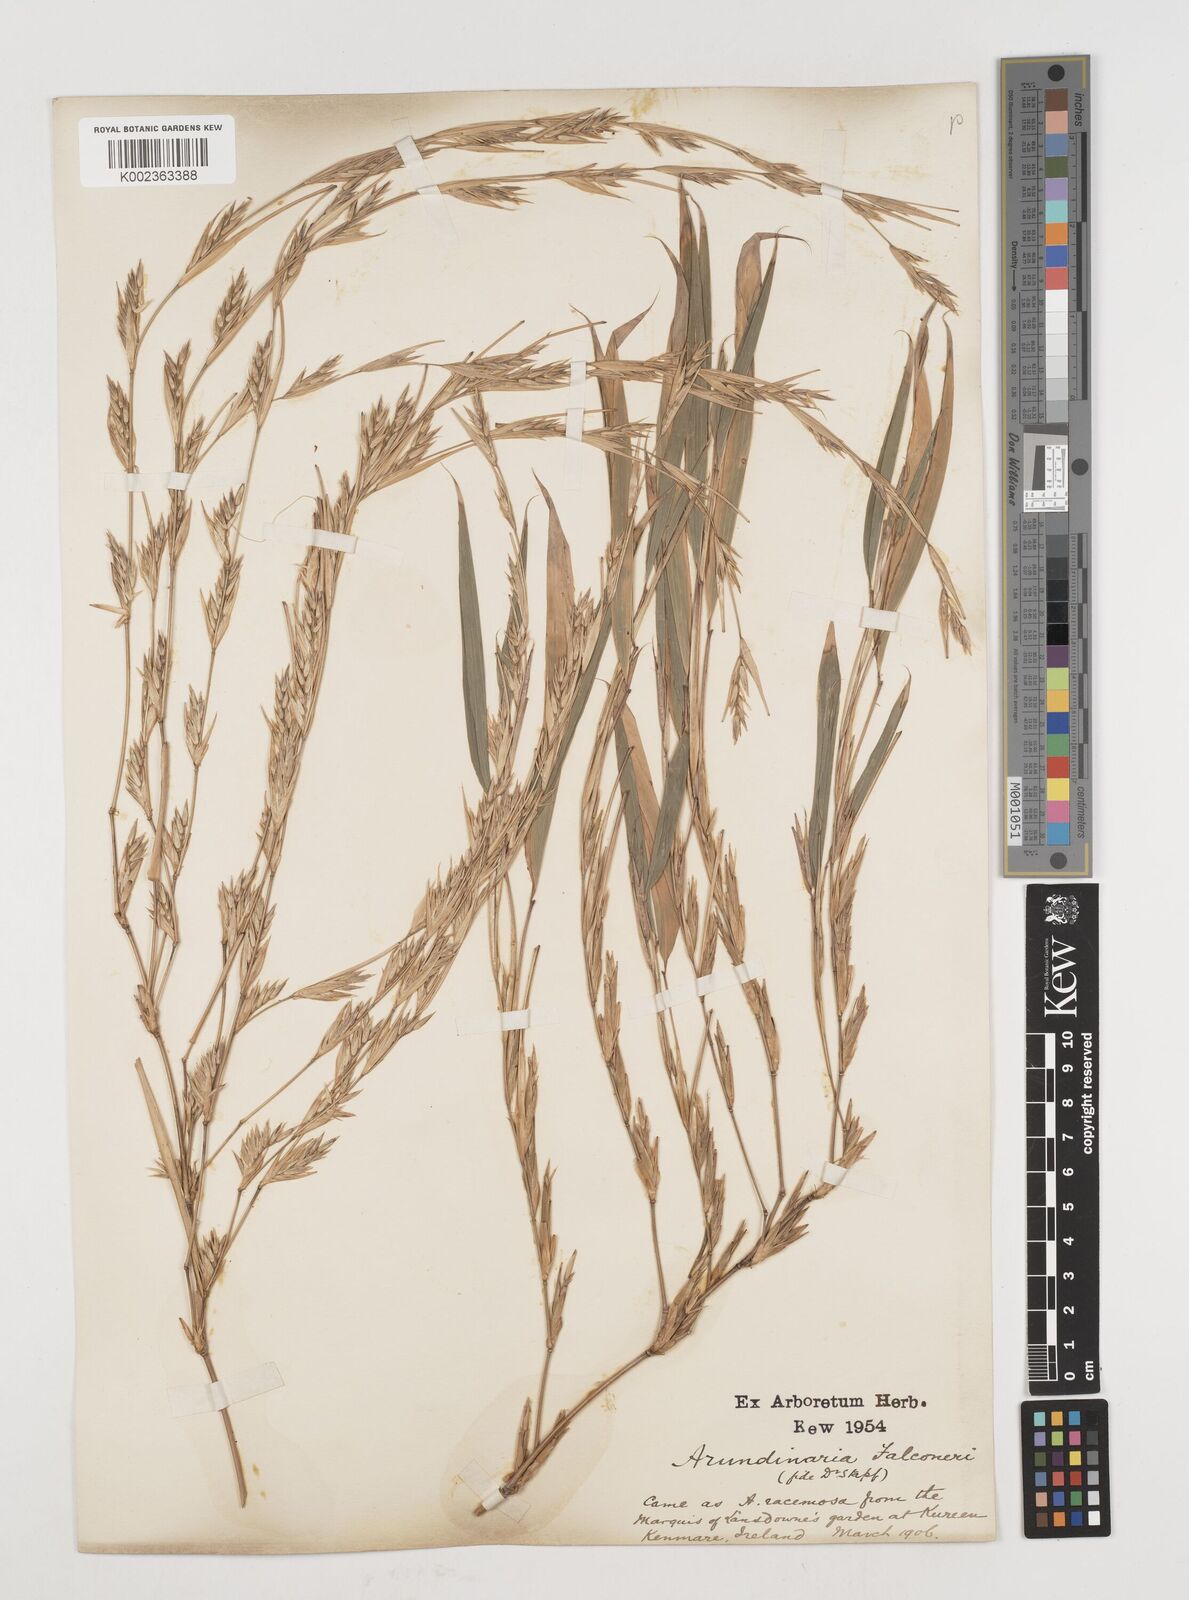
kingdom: Plantae
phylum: Tracheophyta
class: Liliopsida
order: Poales
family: Poaceae
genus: Himalayacalamus
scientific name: Himalayacalamus
